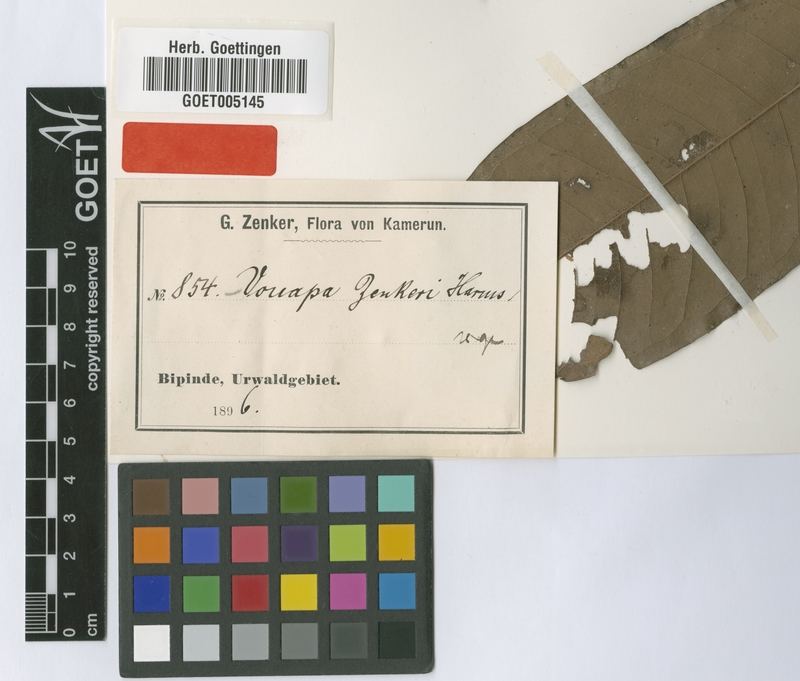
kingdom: Plantae
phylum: Tracheophyta
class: Magnoliopsida
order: Fabales
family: Fabaceae
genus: Gilbertiodendron
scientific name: Gilbertiodendron zenkeri
